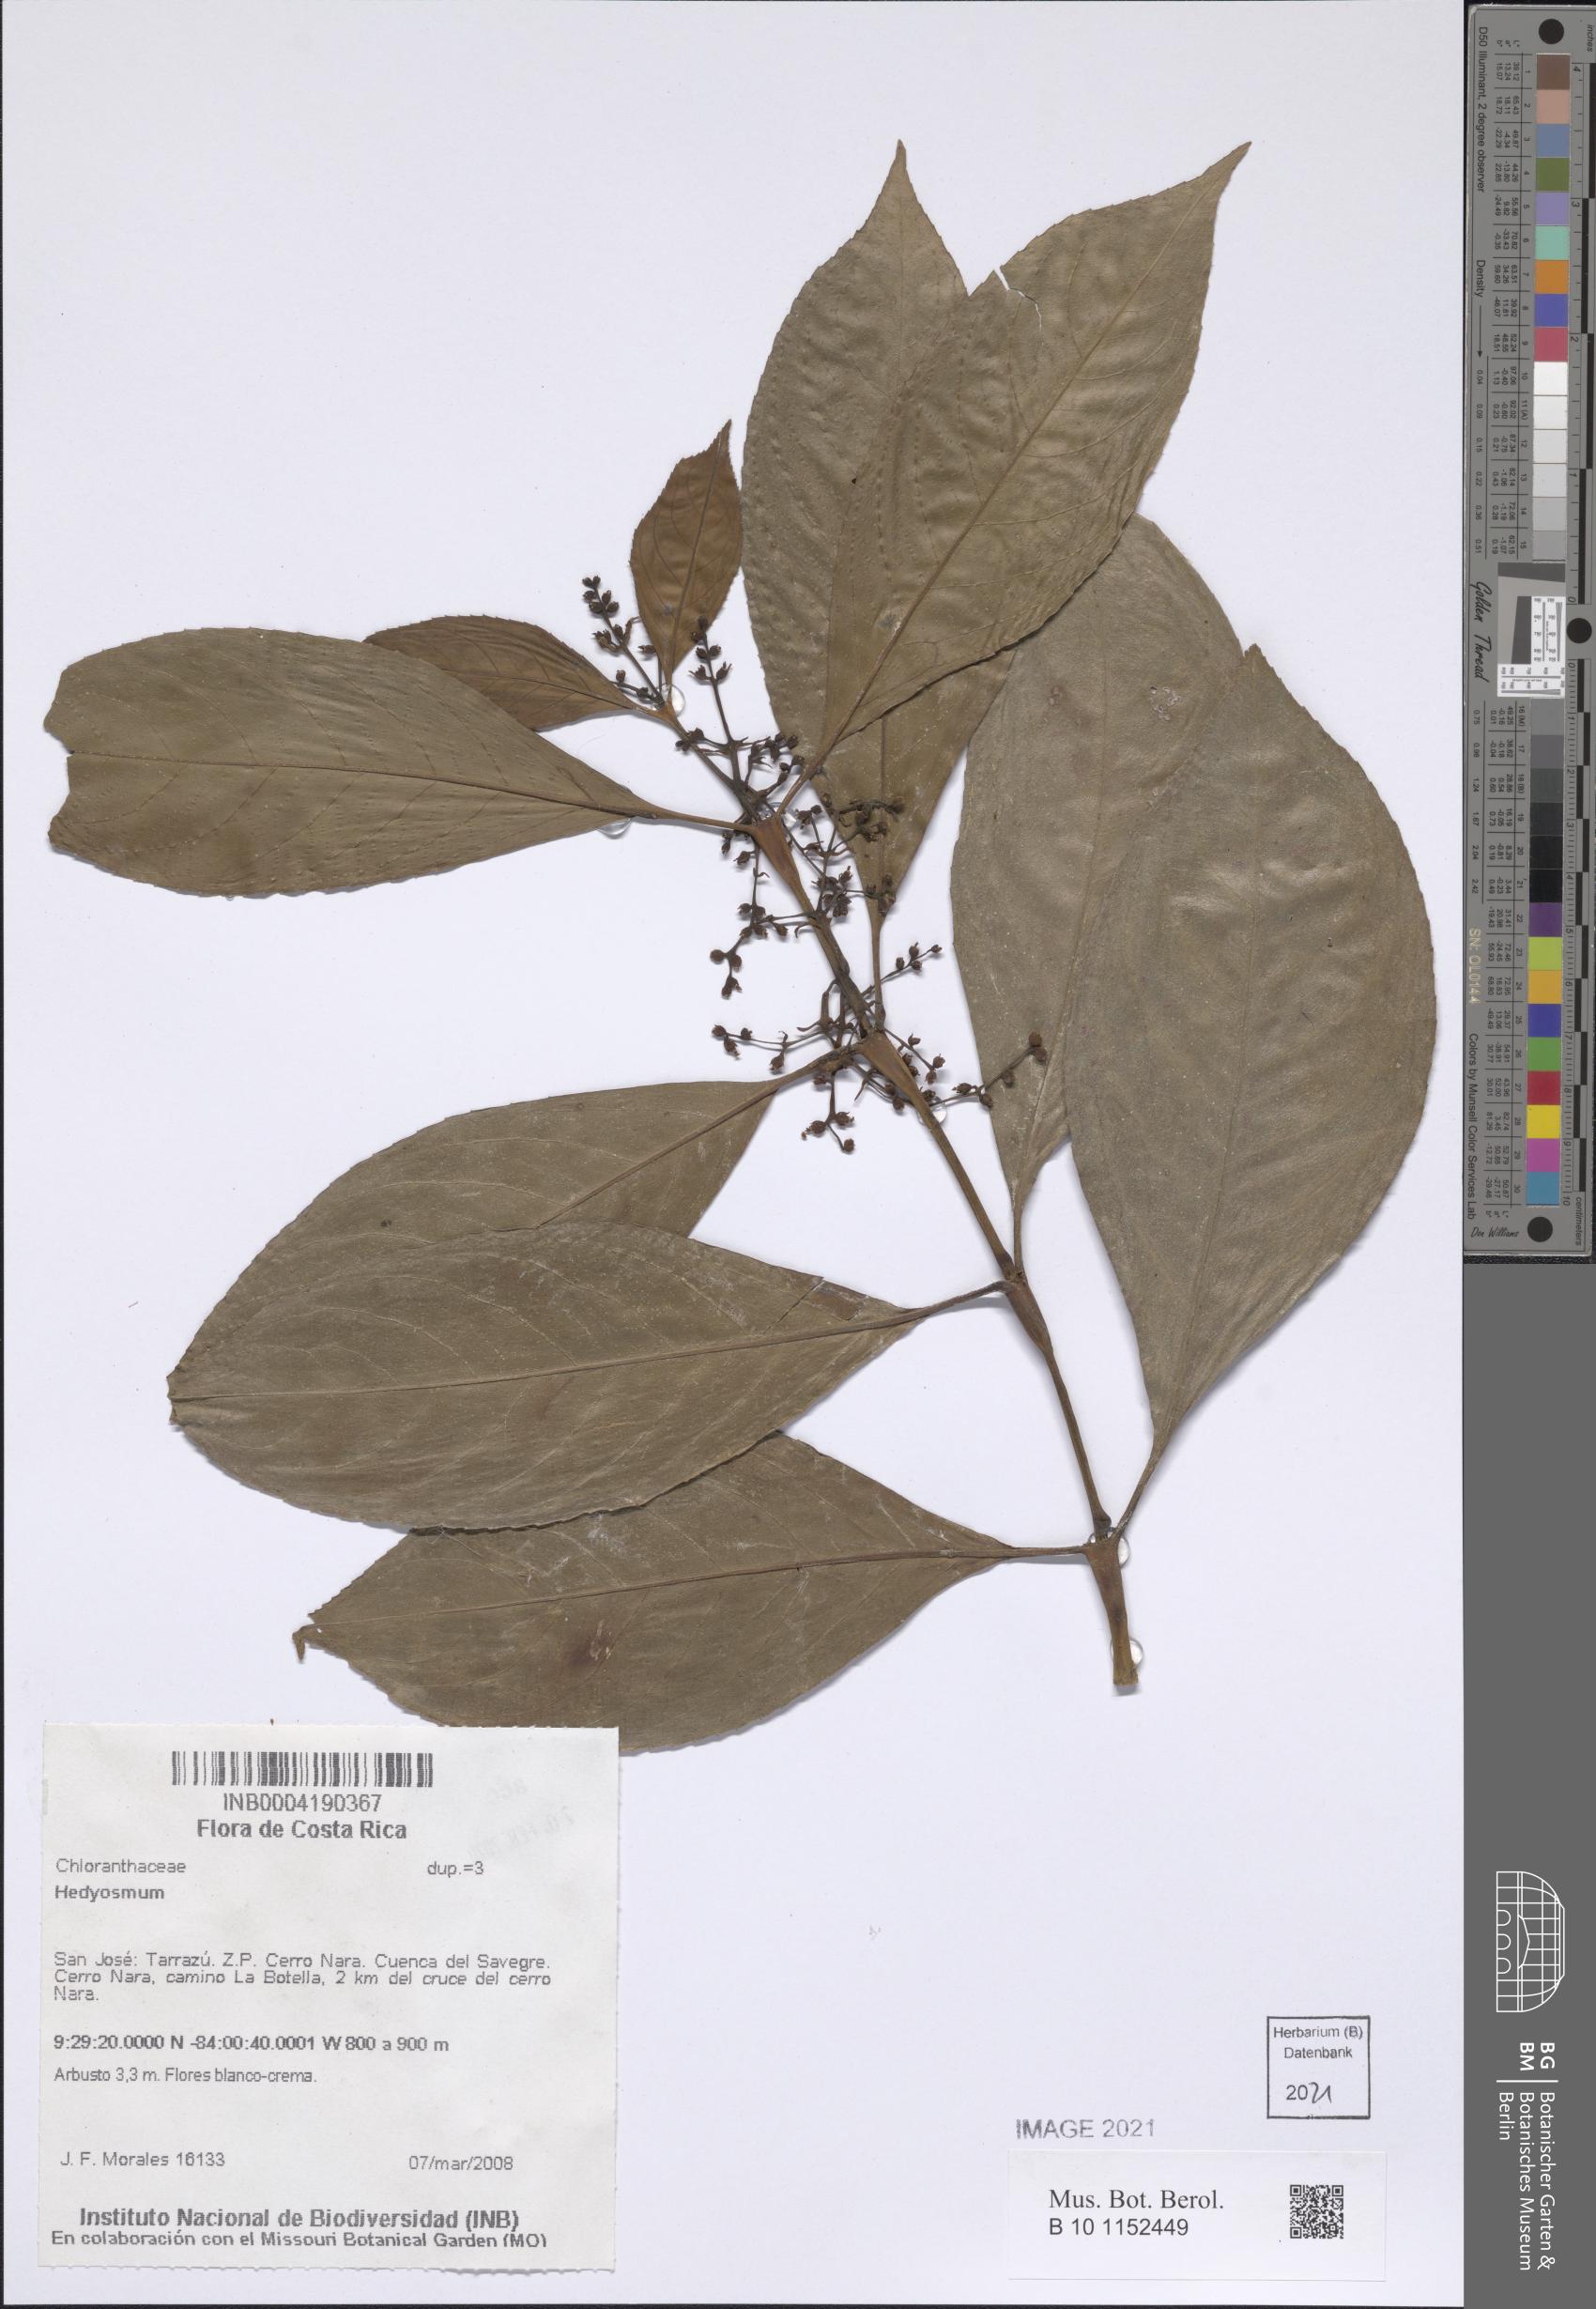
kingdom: Plantae
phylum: Tracheophyta
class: Magnoliopsida
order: Chloranthales
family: Chloranthaceae
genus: Hedyosmum
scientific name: Hedyosmum
